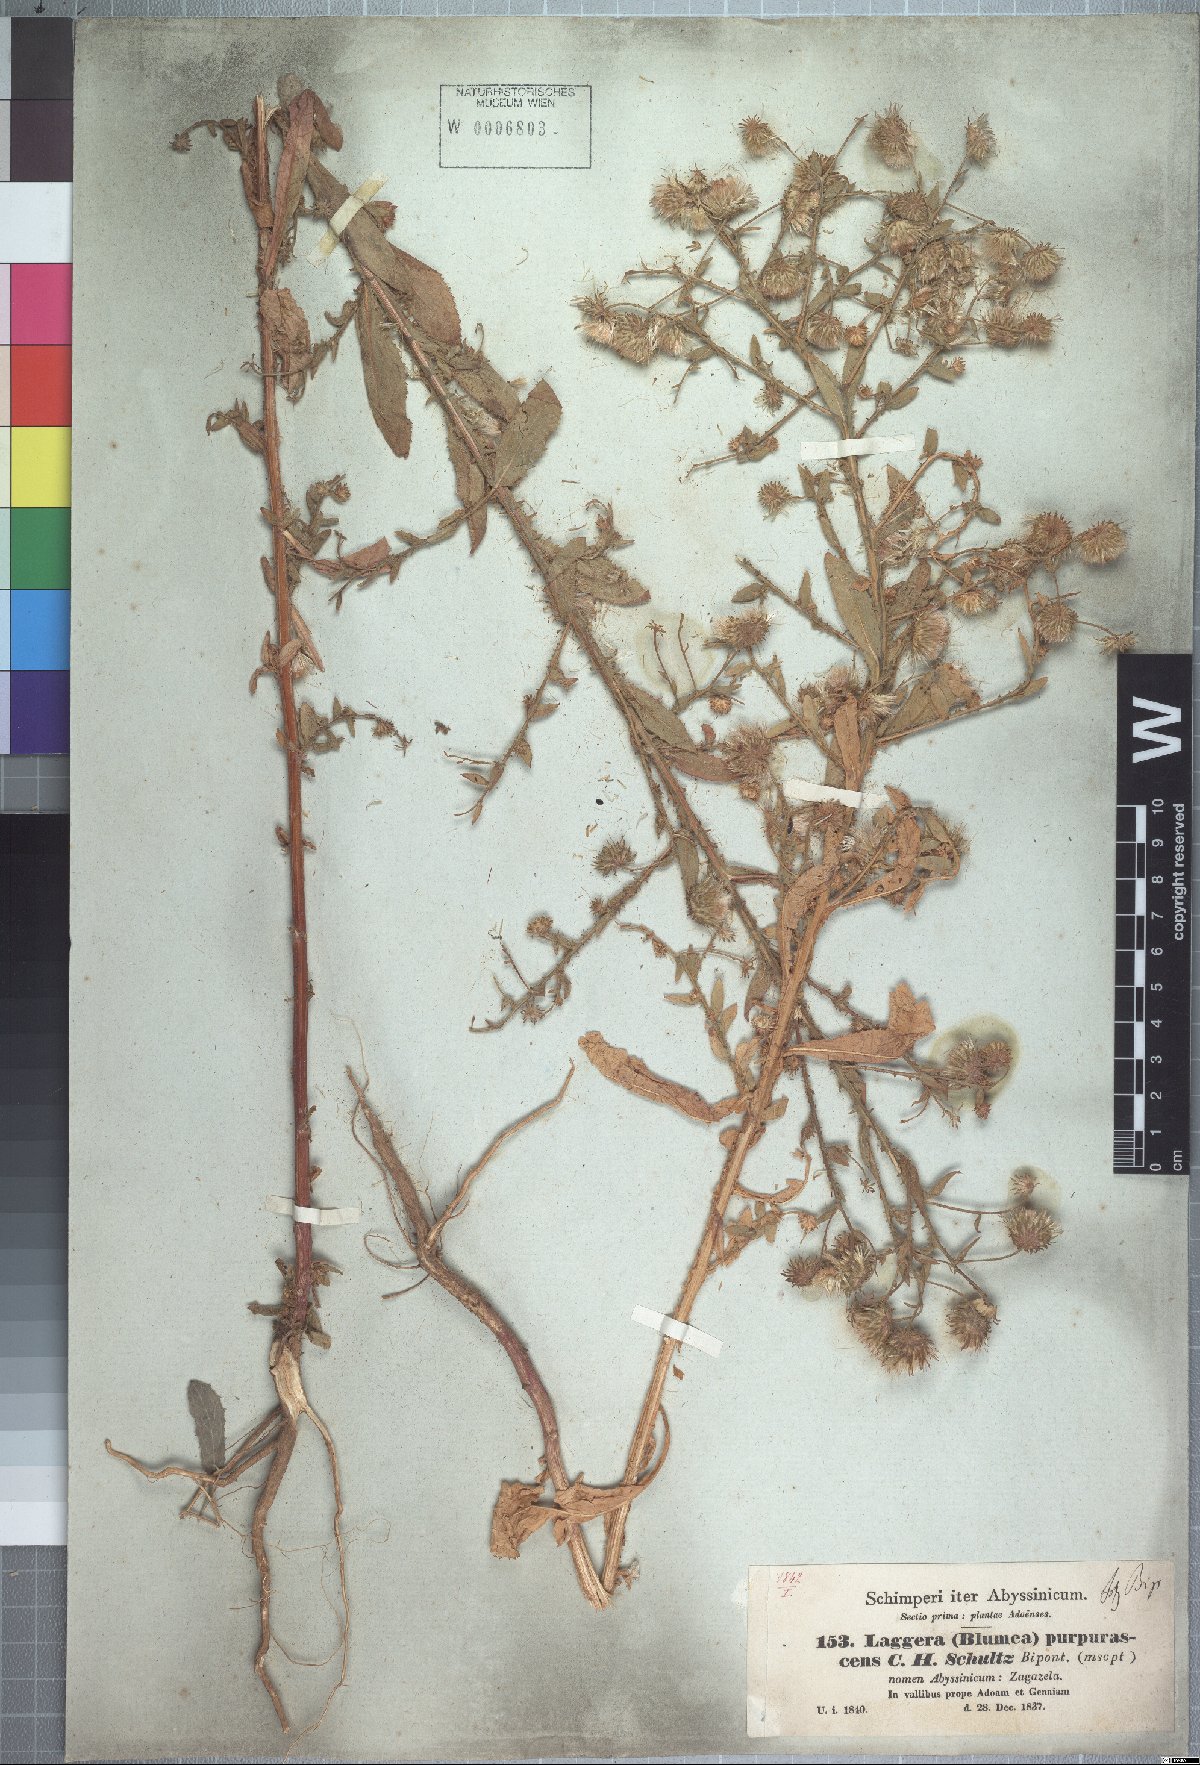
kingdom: Plantae
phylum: Tracheophyta
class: Magnoliopsida
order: Asterales
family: Asteraceae
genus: Laggera
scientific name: Laggera crispata
